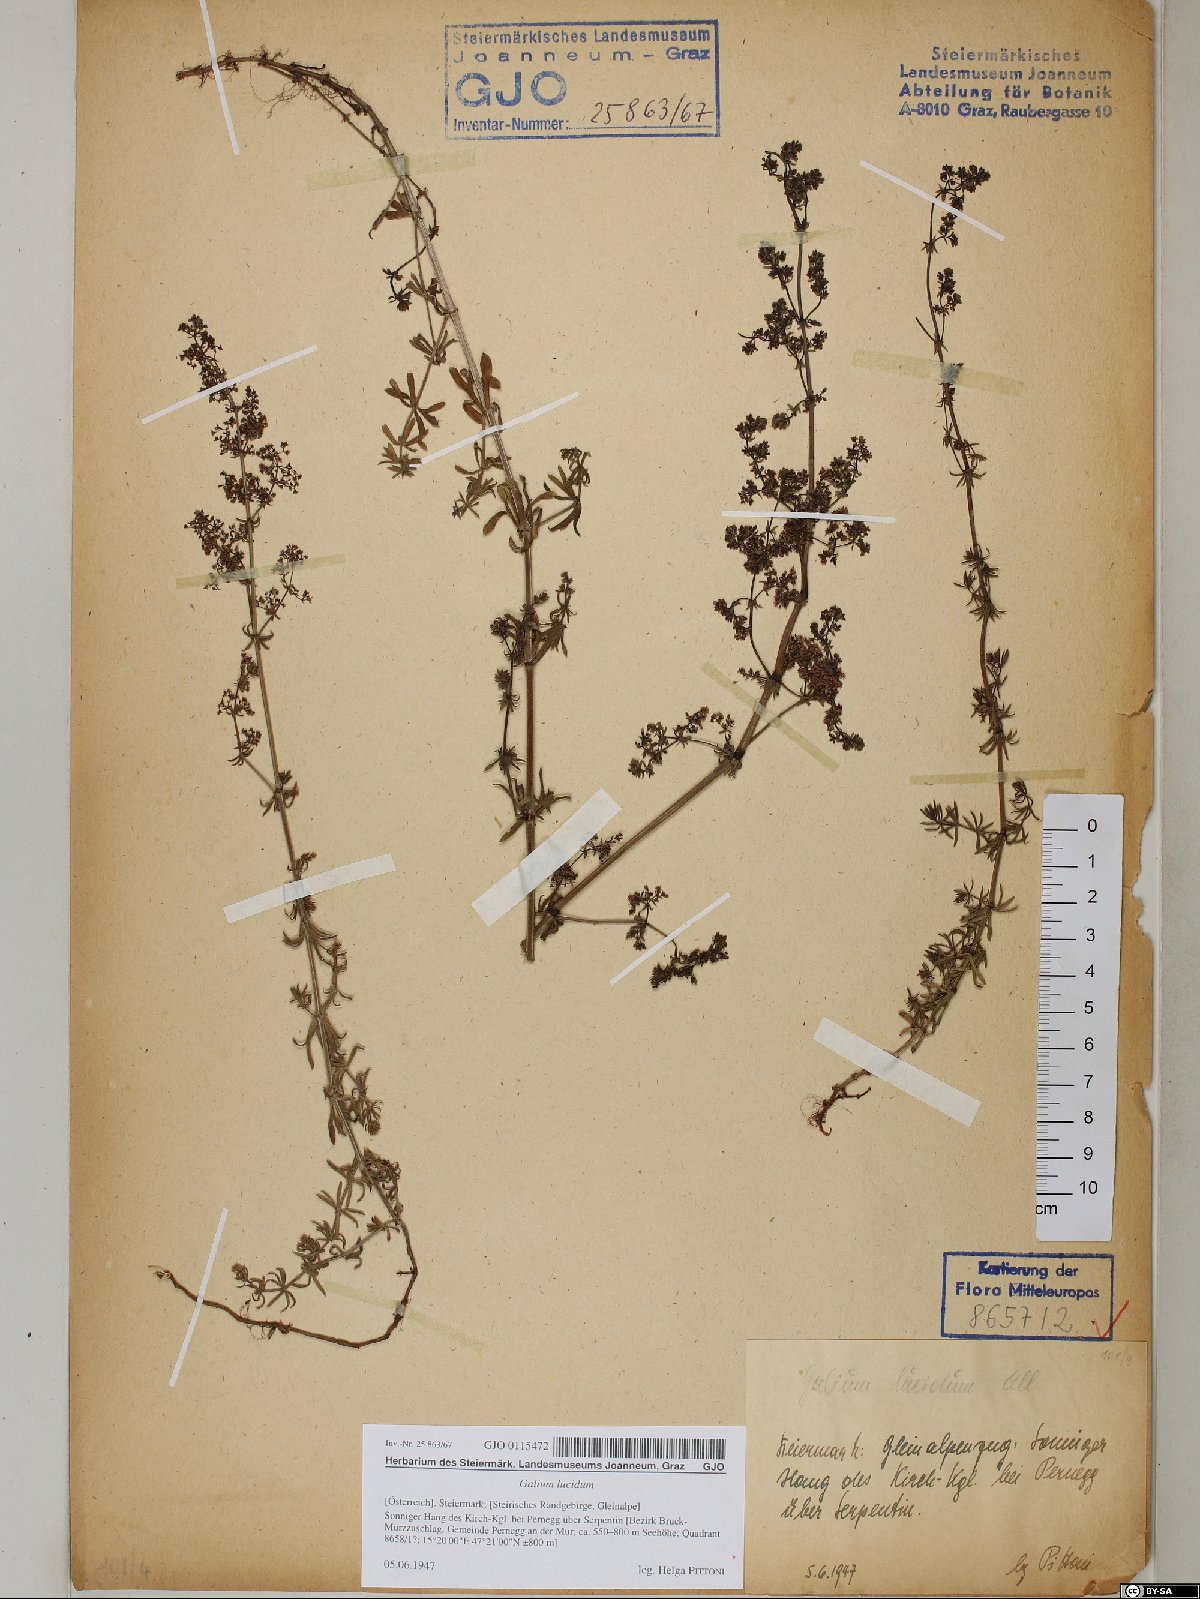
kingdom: Plantae
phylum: Tracheophyta
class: Magnoliopsida
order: Gentianales
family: Rubiaceae
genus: Galium
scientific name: Galium lucidum
